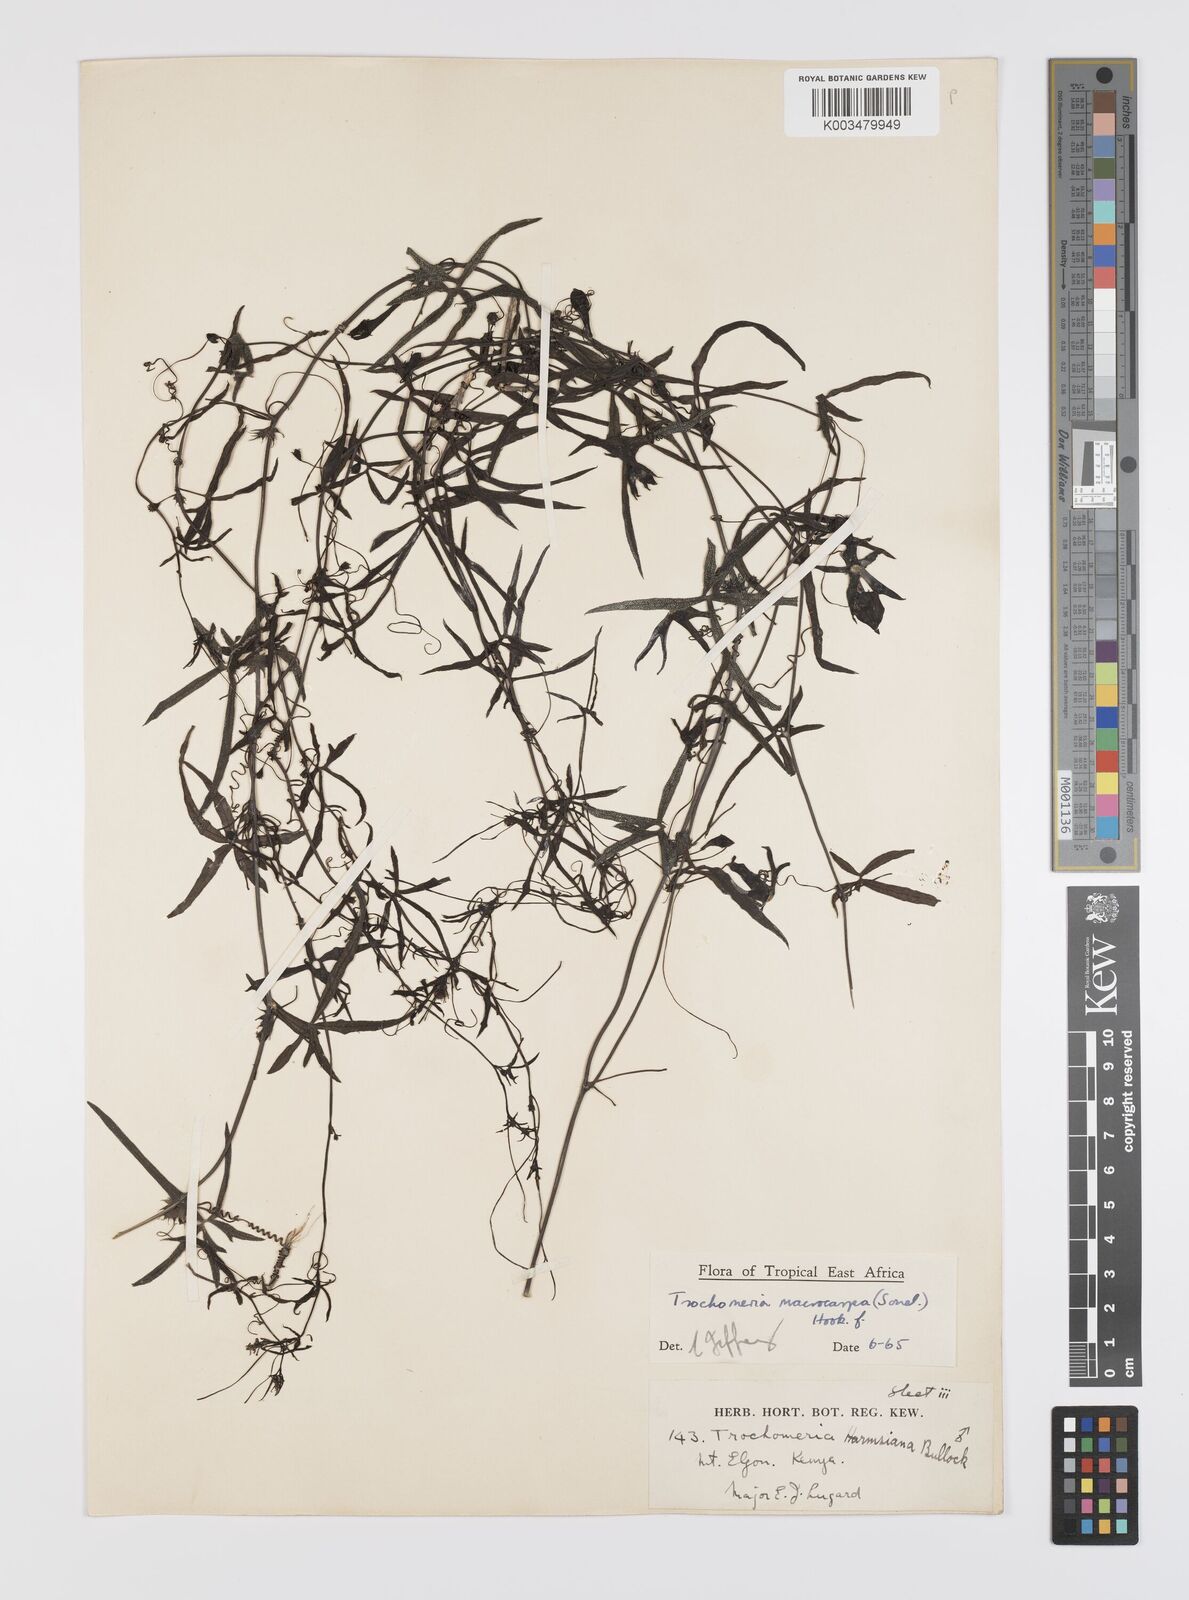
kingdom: Plantae
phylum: Tracheophyta
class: Magnoliopsida
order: Cucurbitales
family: Cucurbitaceae
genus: Trochomeria
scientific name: Trochomeria macrocarpa
